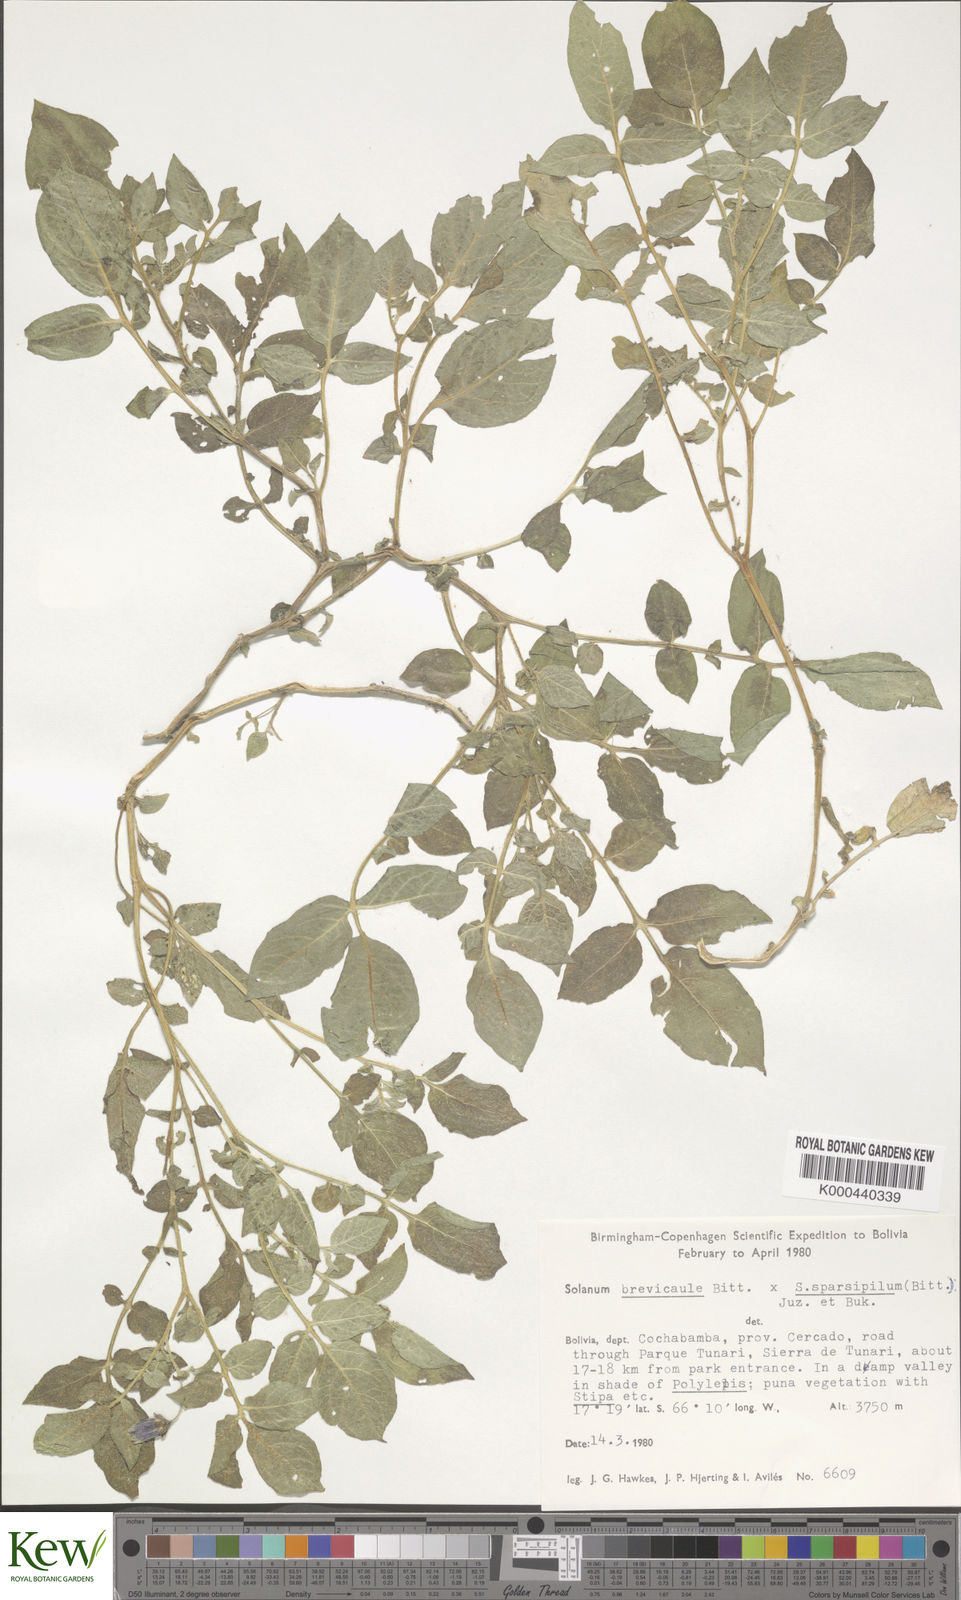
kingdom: Plantae
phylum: Tracheophyta
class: Magnoliopsida
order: Solanales
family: Solanaceae
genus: Solanum
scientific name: Solanum brevicaule
